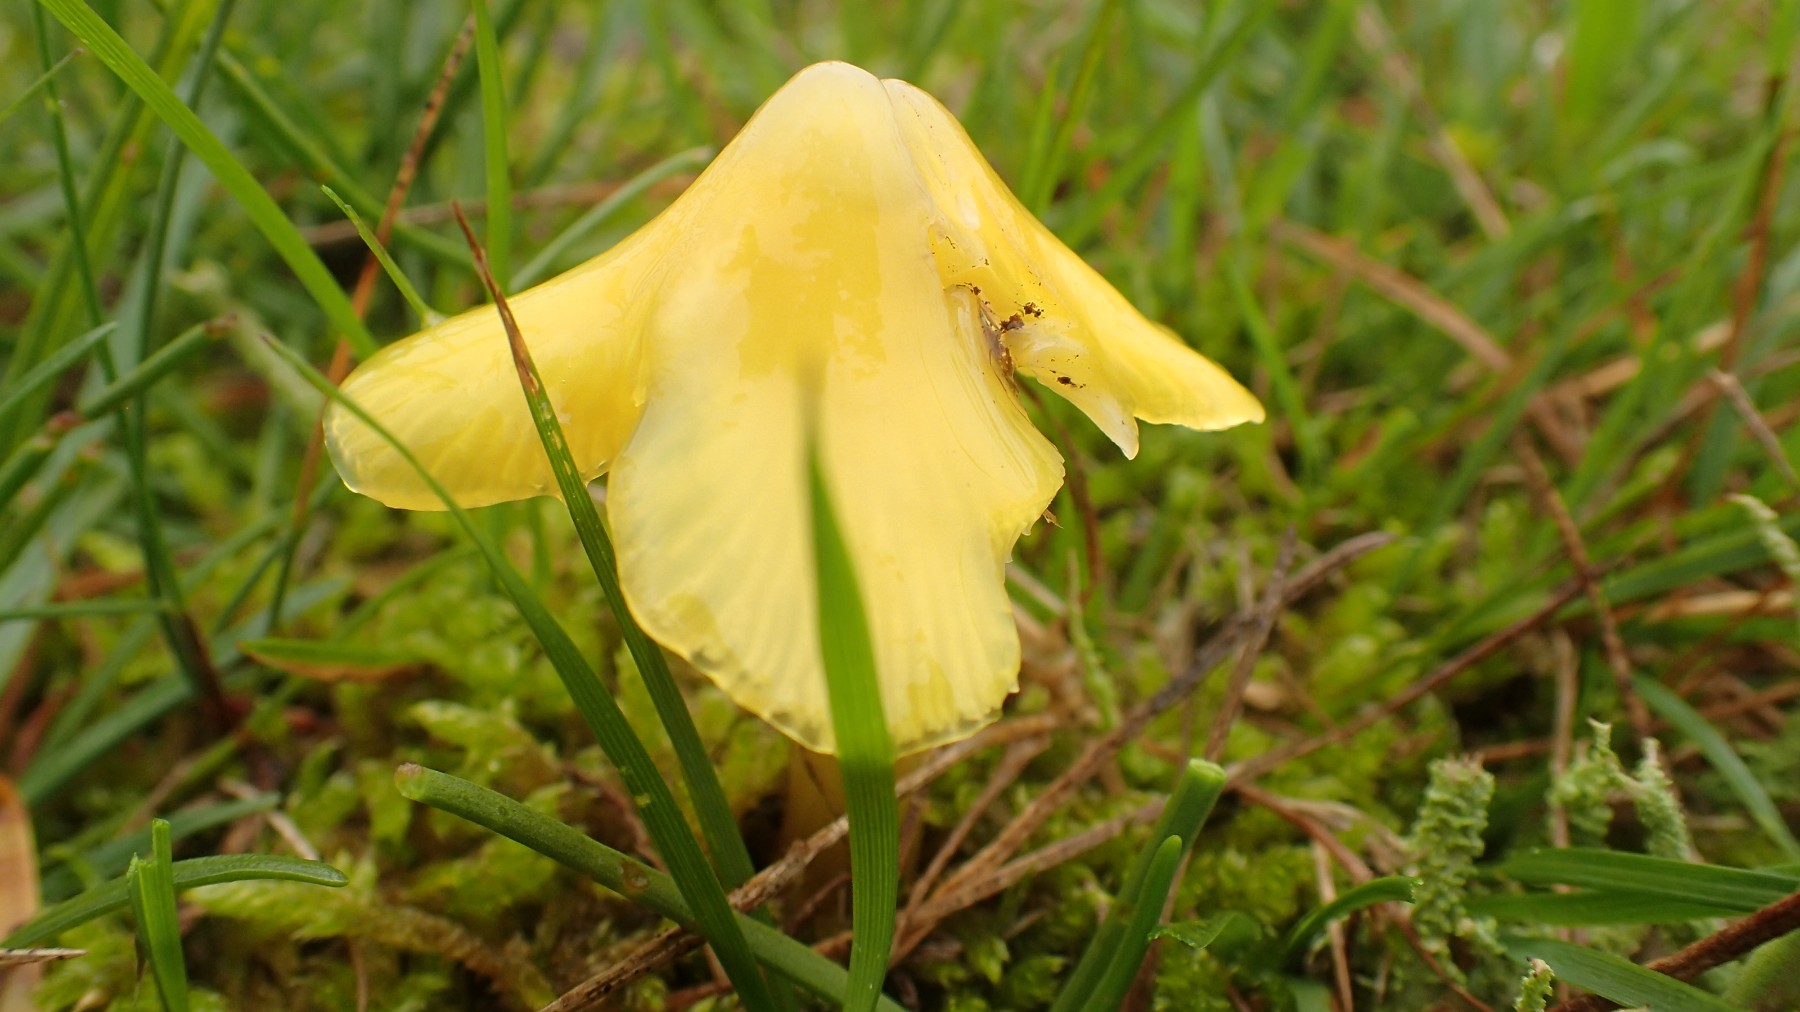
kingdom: Fungi
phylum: Basidiomycota
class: Agaricomycetes
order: Agaricales
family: Hygrophoraceae
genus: Hygrocybe
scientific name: Hygrocybe acutoconica
